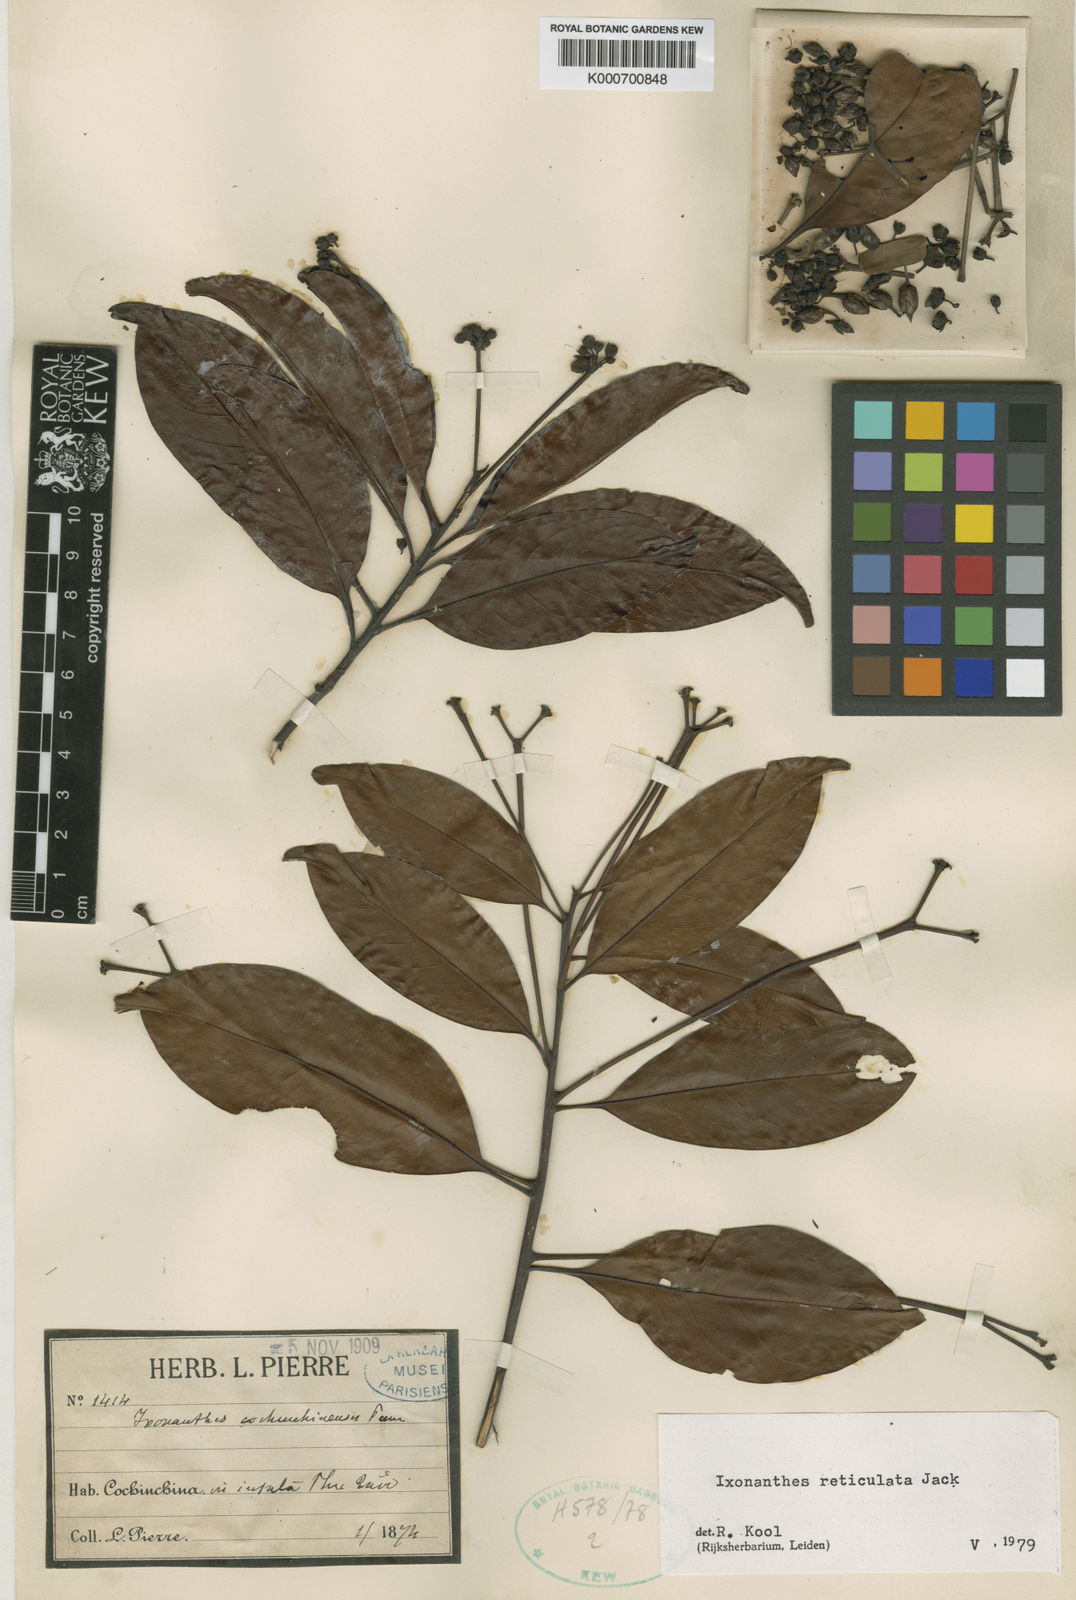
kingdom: Plantae
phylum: Tracheophyta
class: Magnoliopsida
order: Malpighiales
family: Ixonanthaceae
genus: Ixonanthes
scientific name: Ixonanthes reticulata
